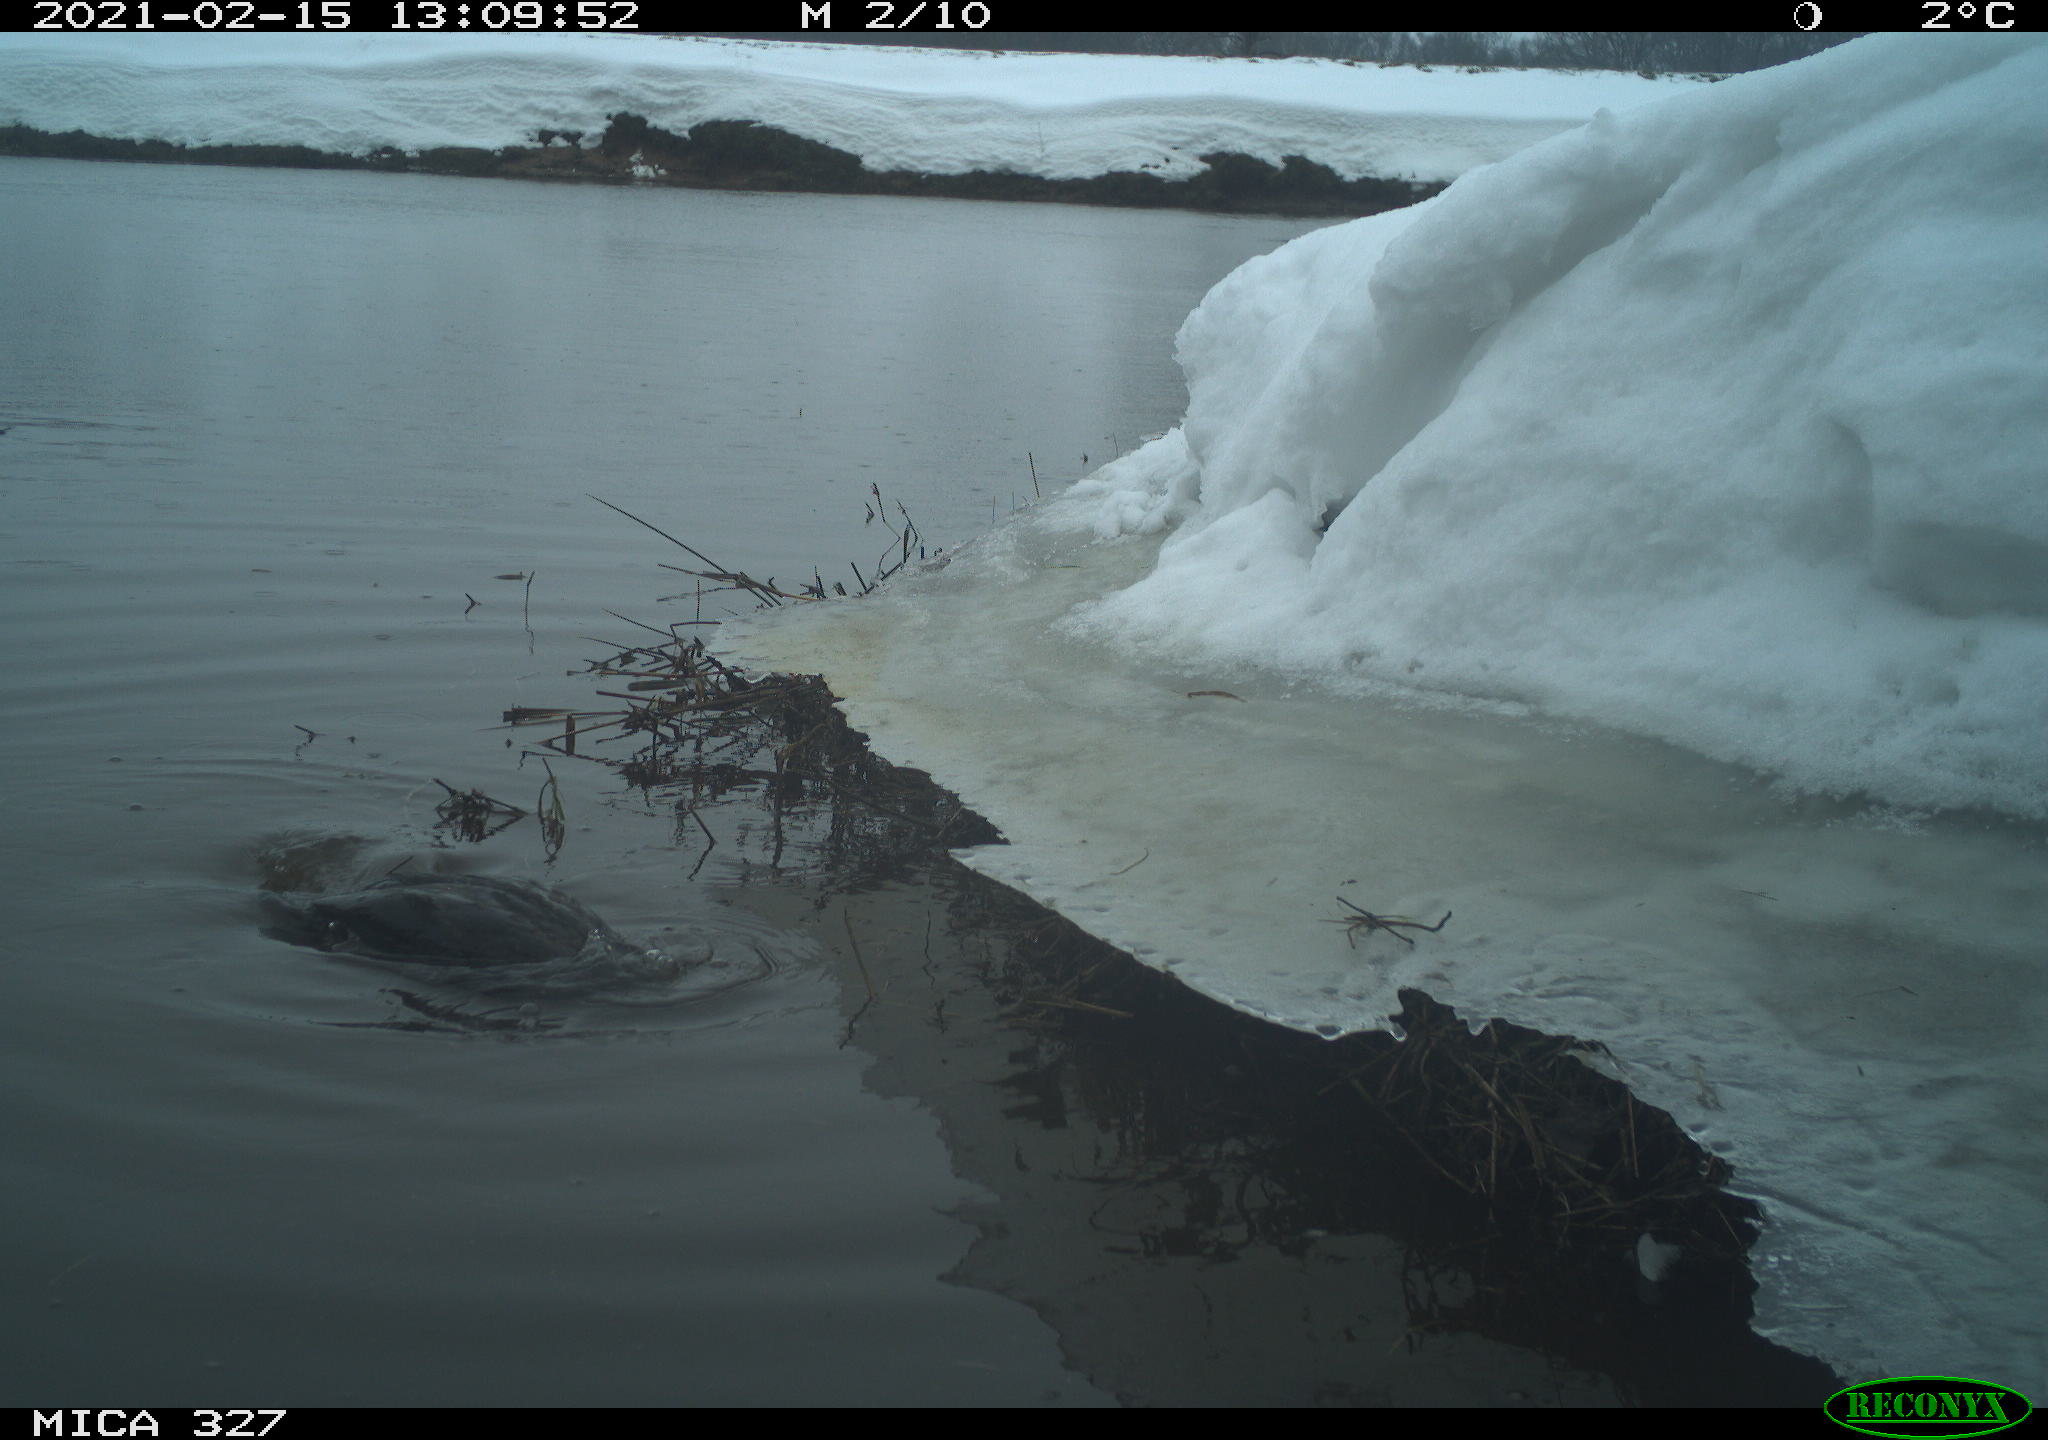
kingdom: Animalia
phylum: Chordata
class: Aves
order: Suliformes
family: Phalacrocoracidae
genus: Phalacrocorax
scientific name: Phalacrocorax carbo
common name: Great cormorant
